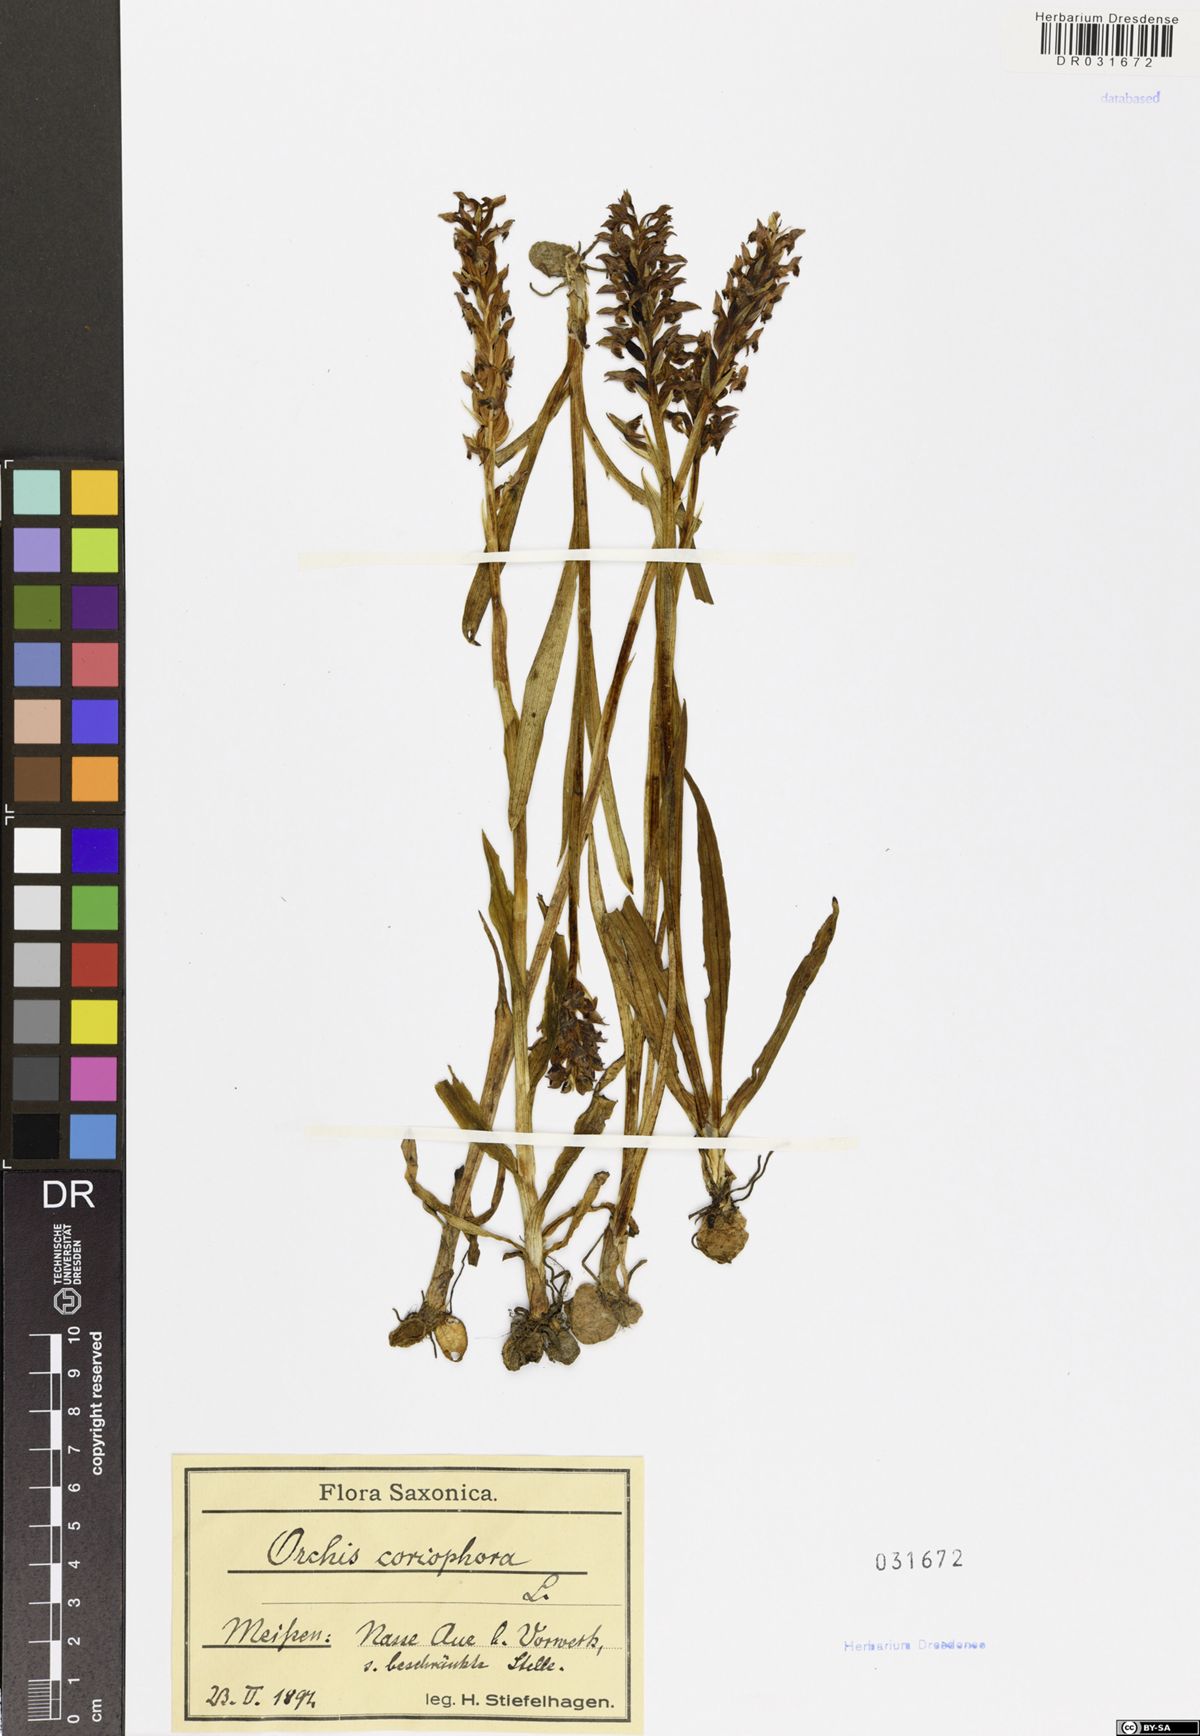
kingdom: Plantae
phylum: Tracheophyta
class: Liliopsida
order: Asparagales
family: Orchidaceae
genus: Anacamptis
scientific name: Anacamptis coriophora
